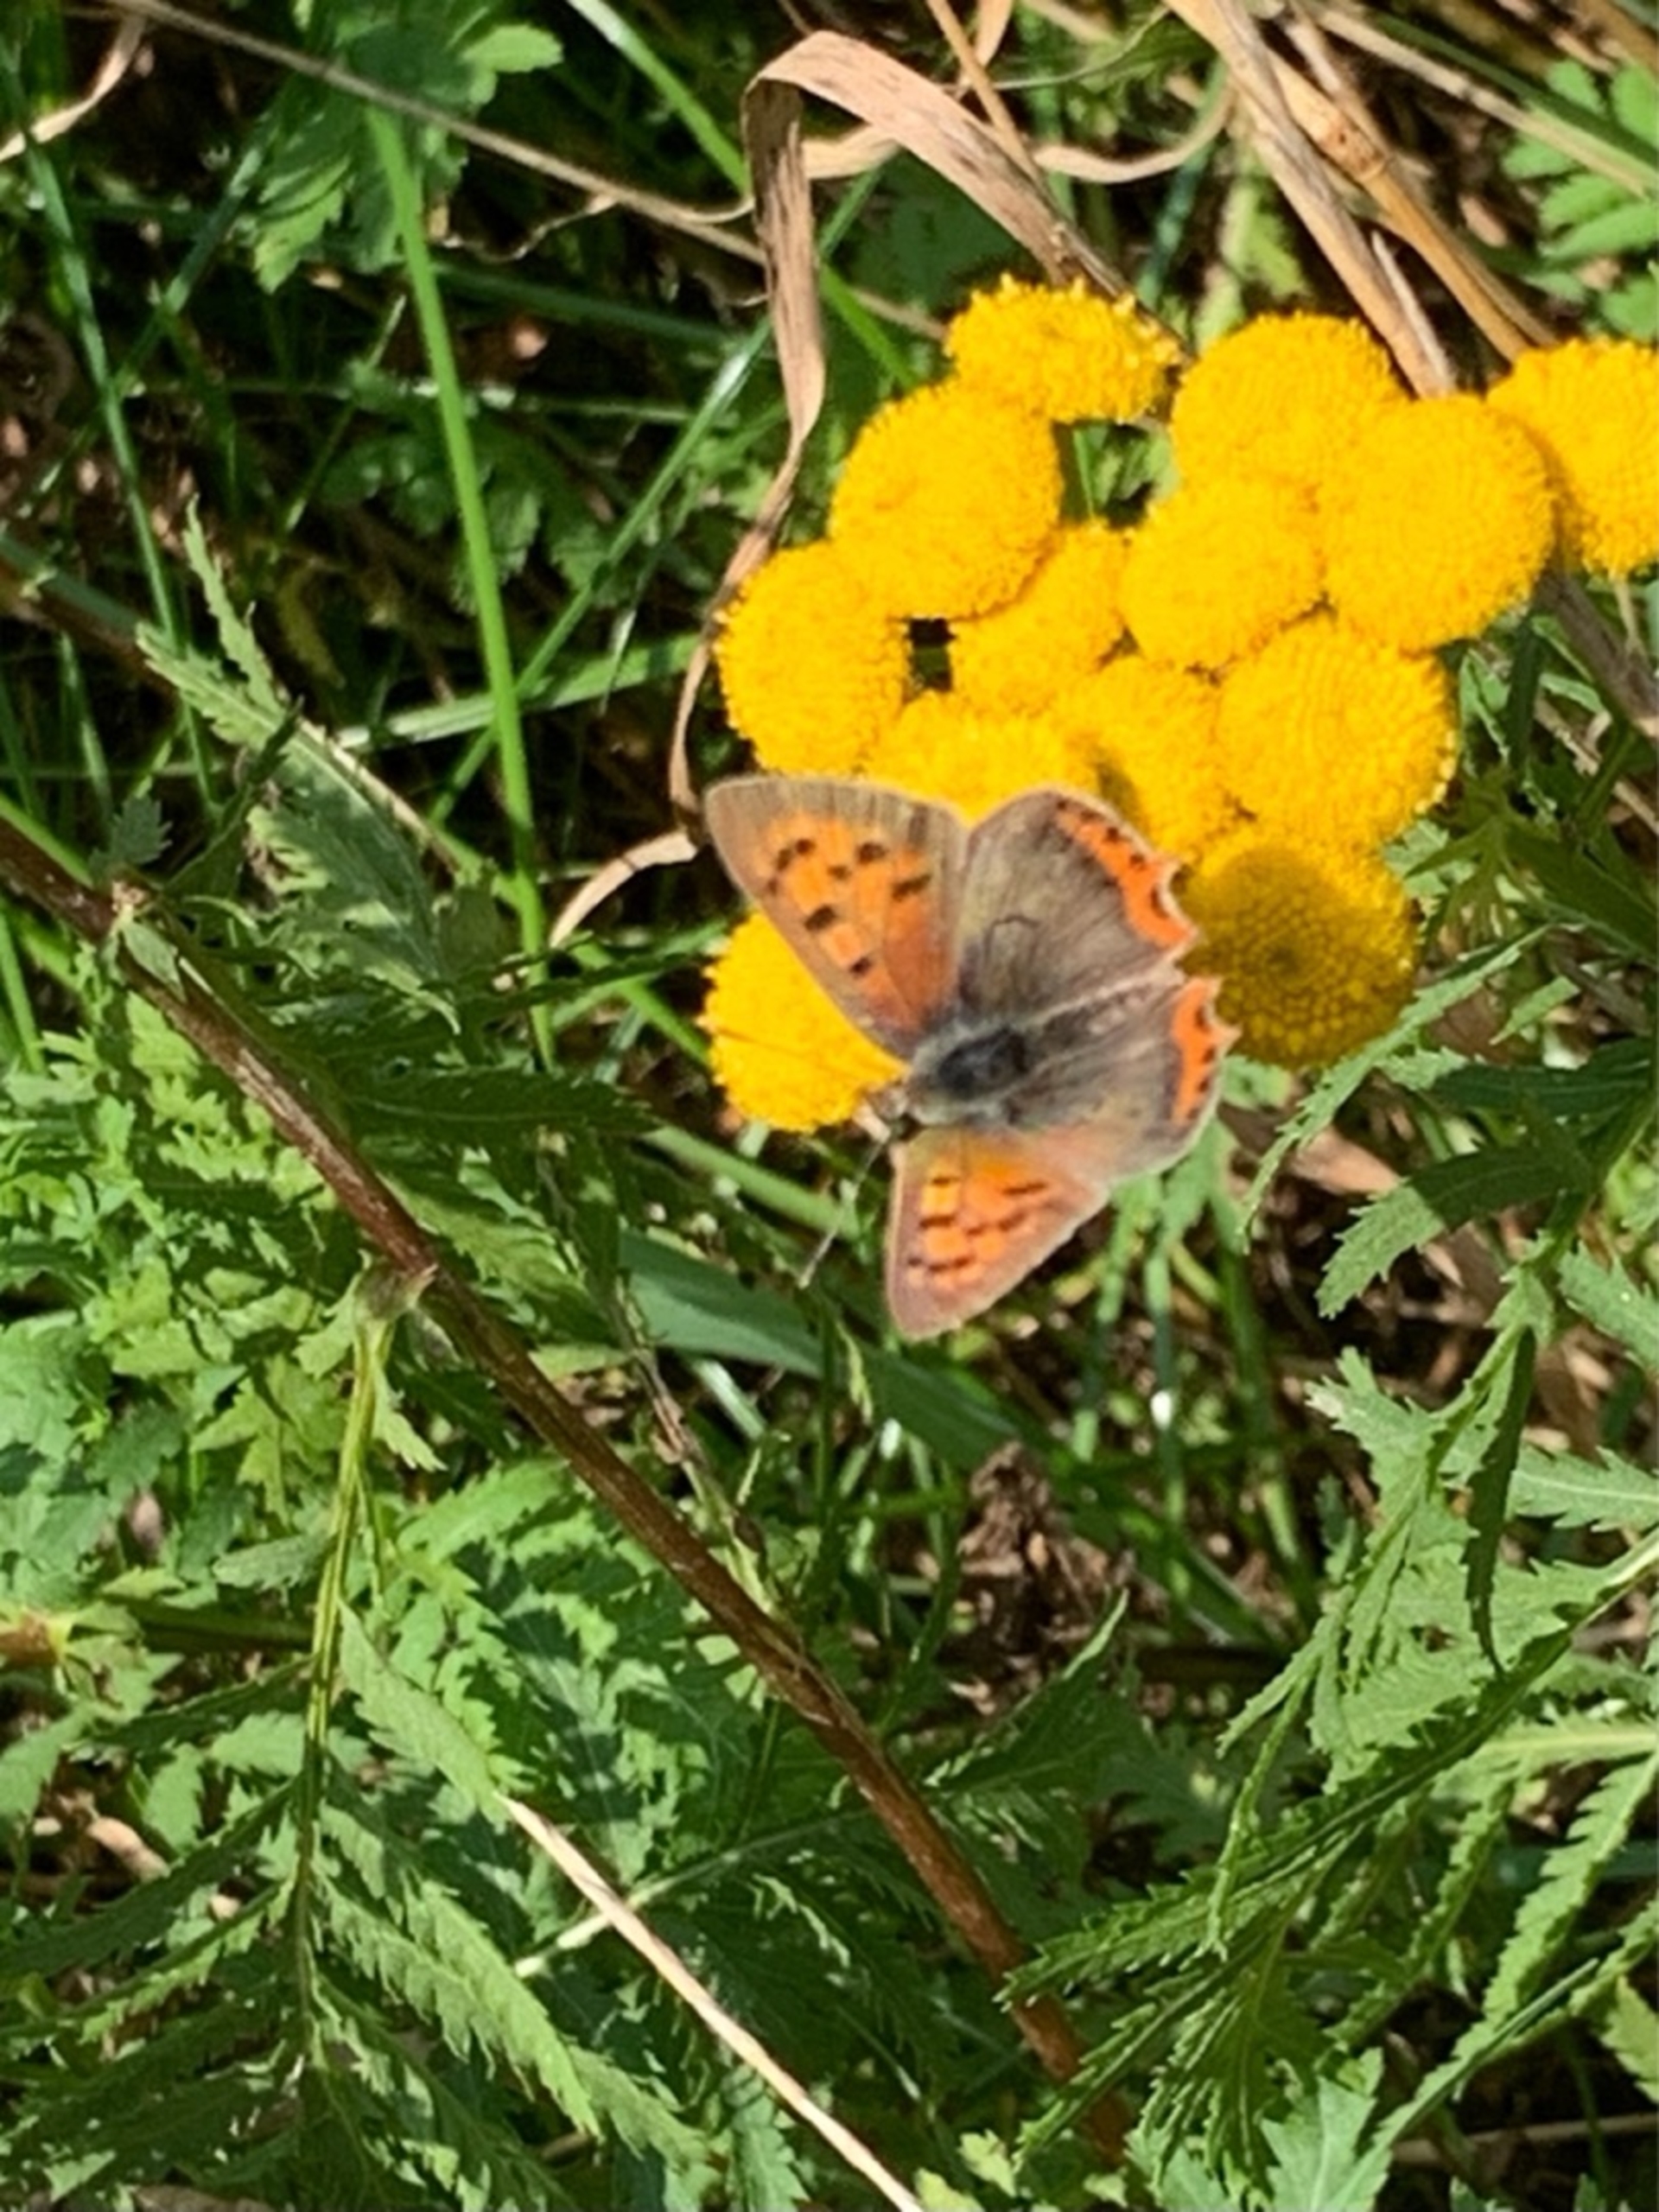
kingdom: Animalia
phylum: Arthropoda
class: Insecta
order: Lepidoptera
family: Lycaenidae
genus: Lycaena
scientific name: Lycaena phlaeas
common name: Lille ildfugl
